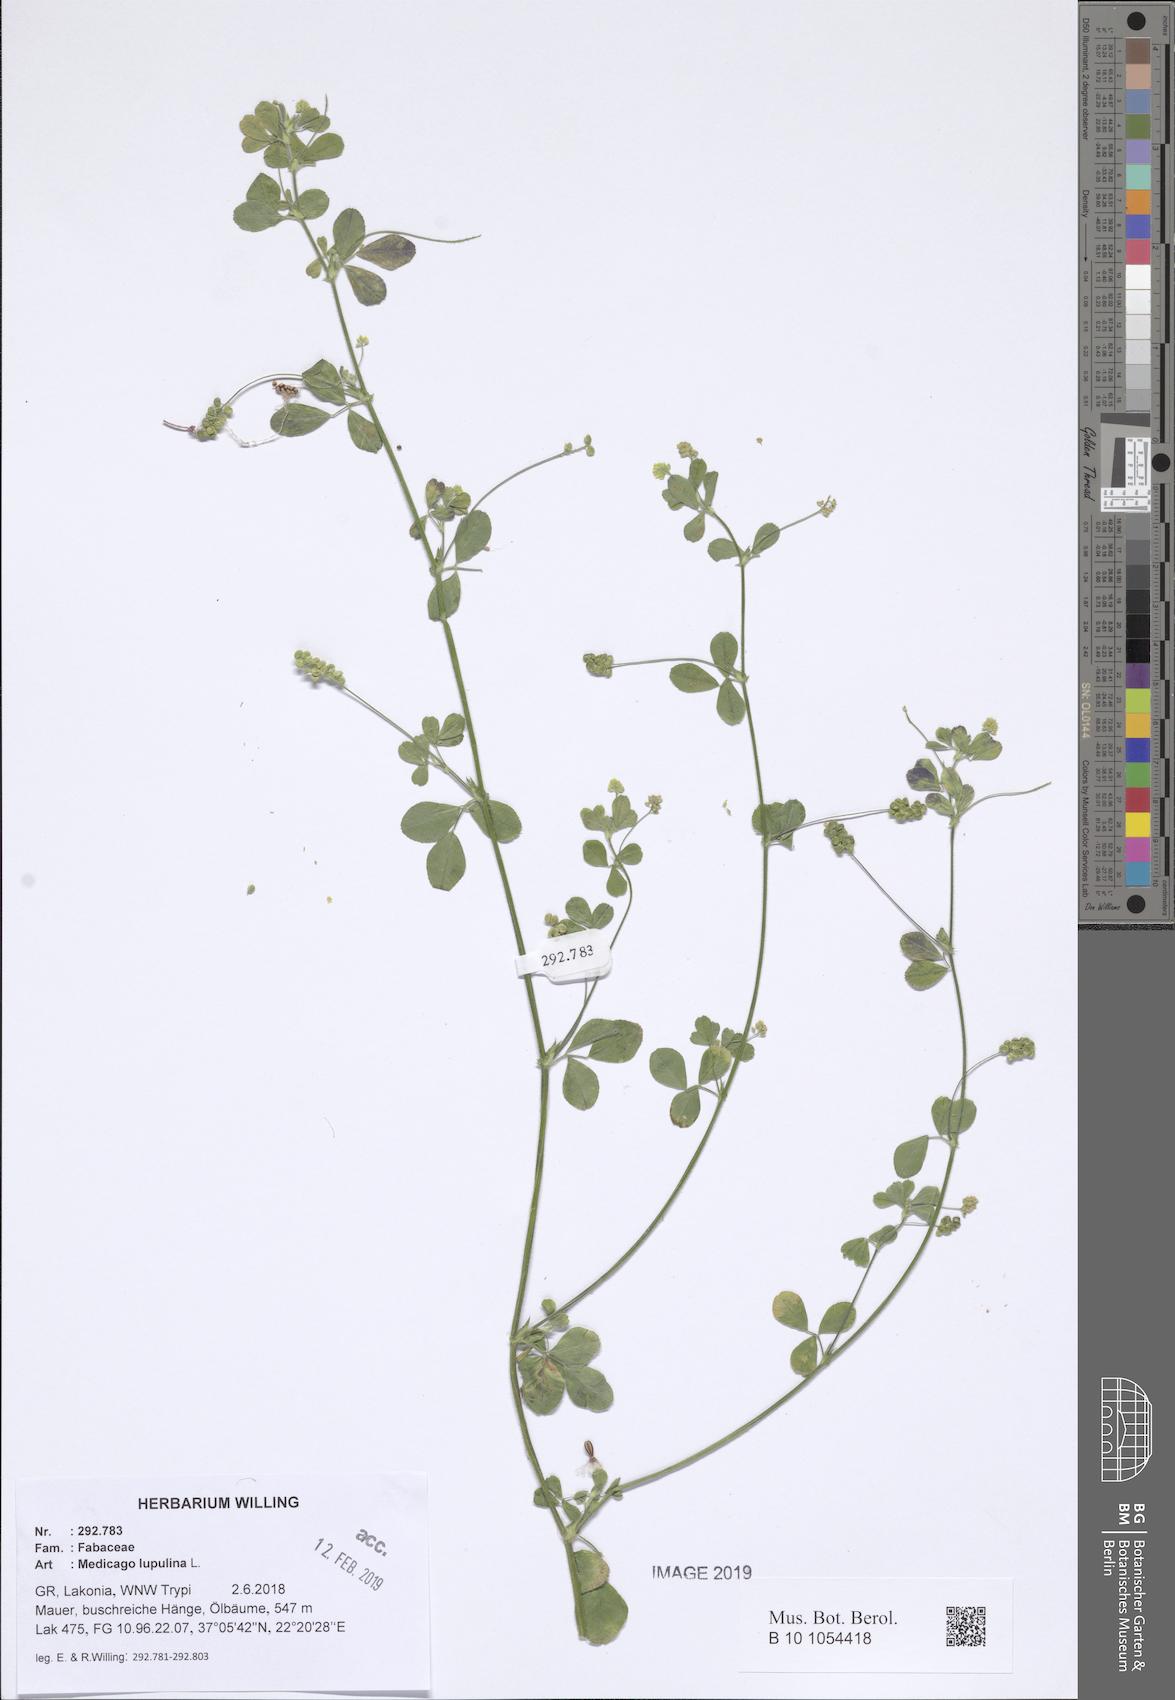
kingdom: Plantae
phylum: Tracheophyta
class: Magnoliopsida
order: Fabales
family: Fabaceae
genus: Medicago
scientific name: Medicago lupulina
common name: Black medick
